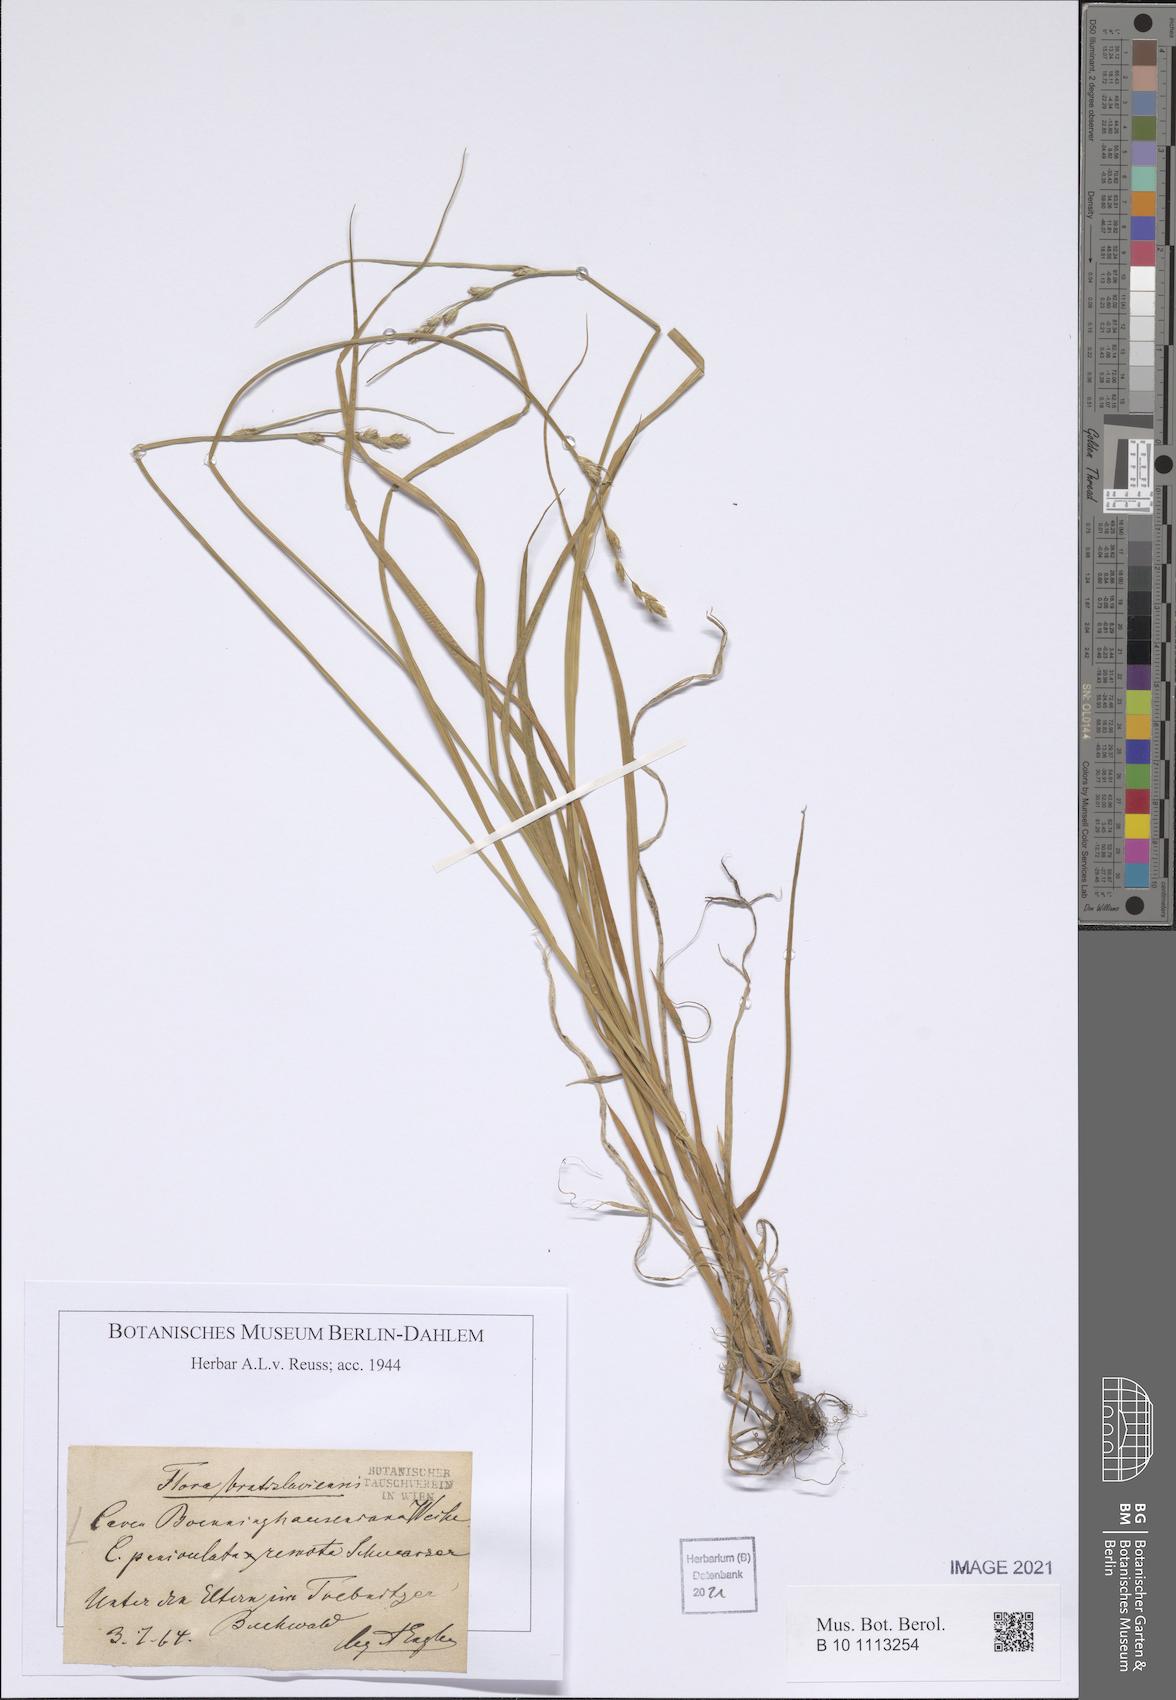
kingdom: Plantae
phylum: Tracheophyta
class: Liliopsida
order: Poales
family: Cyperaceae
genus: Carex
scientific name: Carex boenninghausiana
